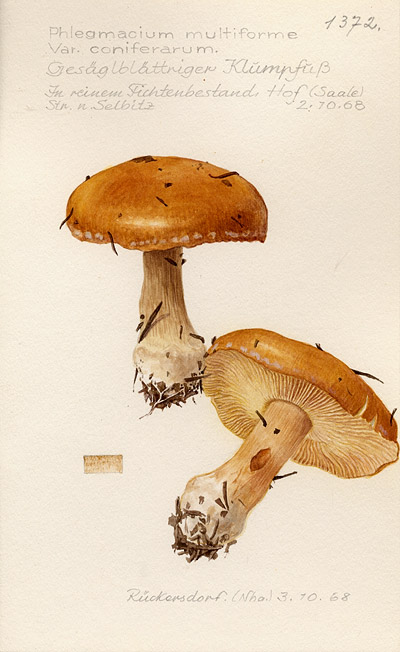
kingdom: Fungi
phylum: Basidiomycota
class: Agaricomycetes
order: Agaricales
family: Cortinariaceae
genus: Calonarius
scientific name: Calonarius coniferarum
